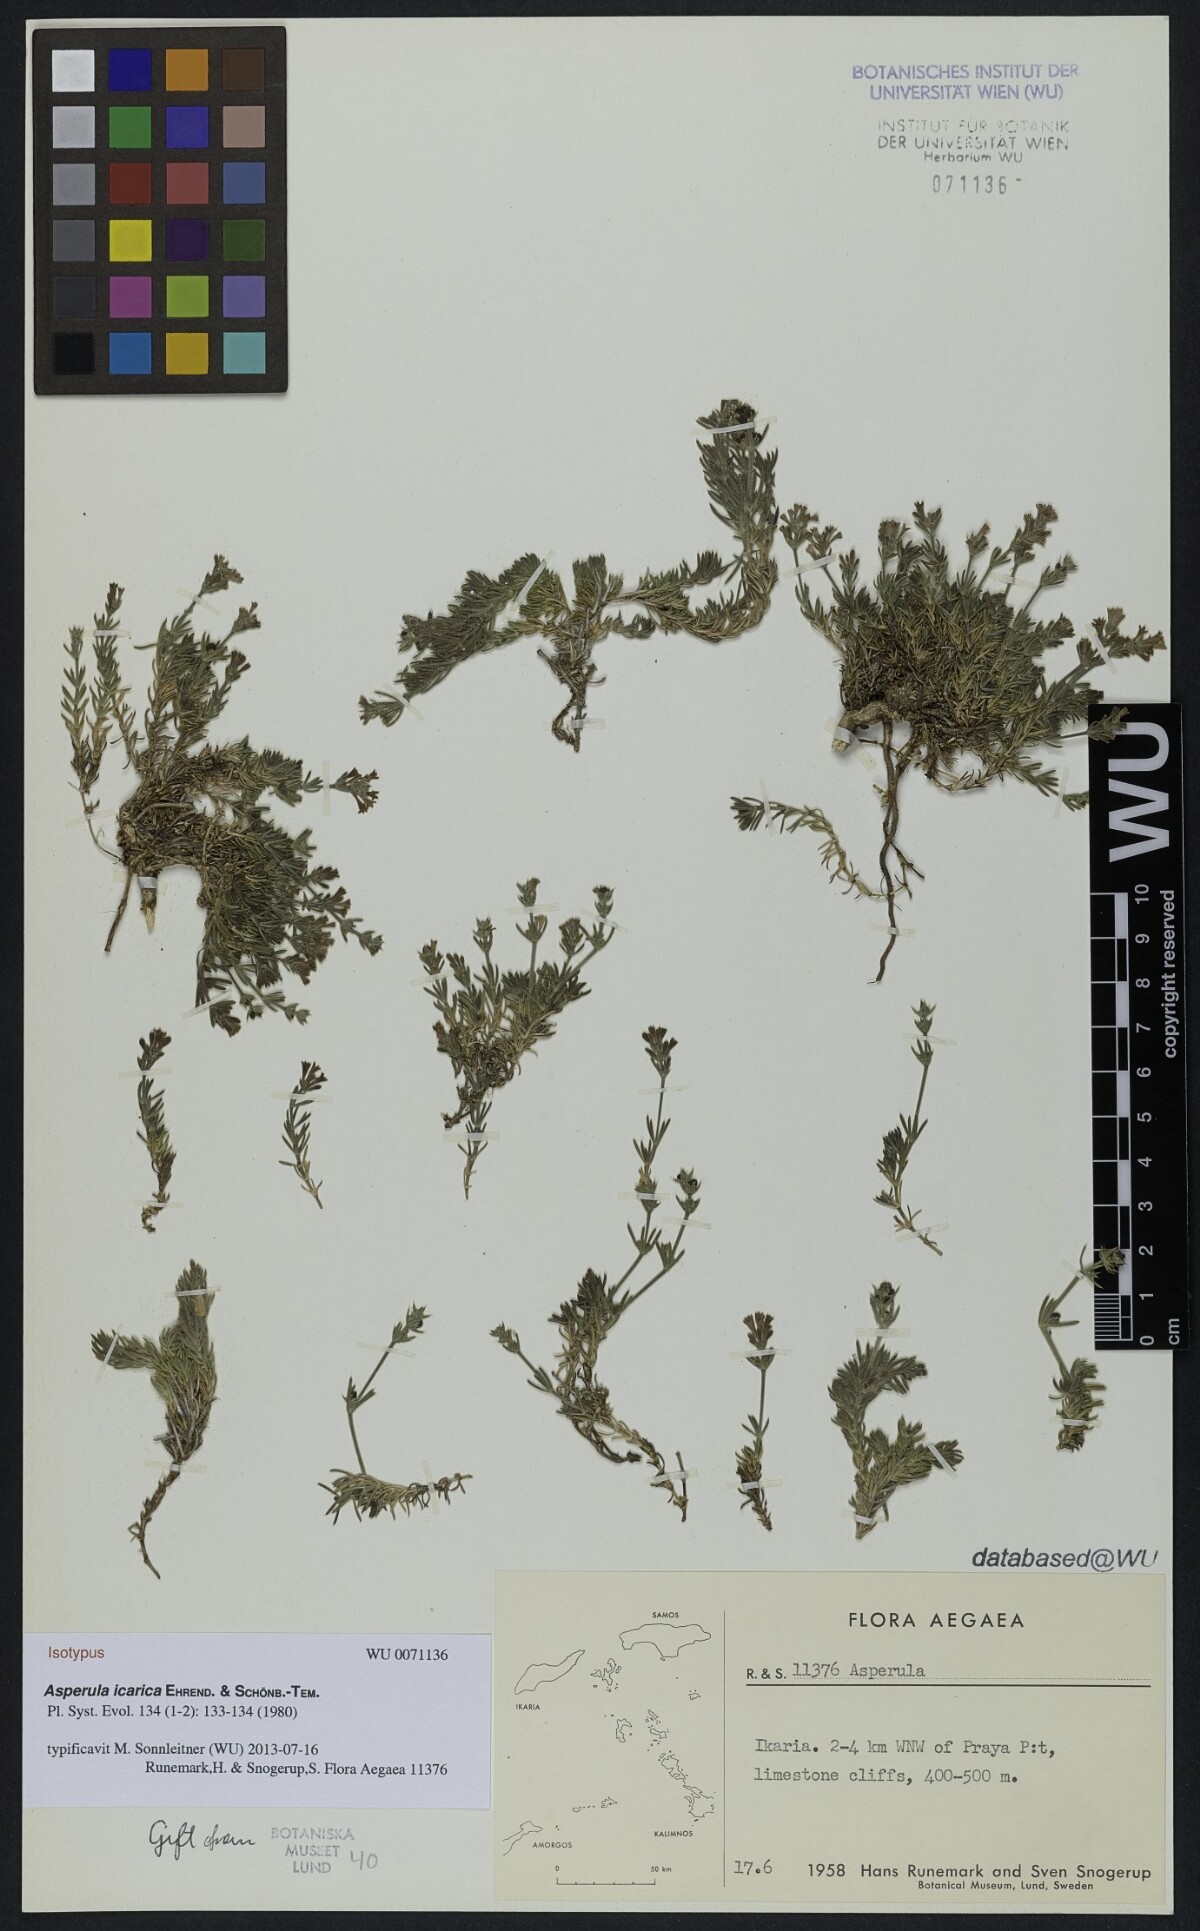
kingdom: Plantae
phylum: Tracheophyta
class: Magnoliopsida
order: Gentianales
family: Rubiaceae
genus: Cynanchica
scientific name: Cynanchica icarica
